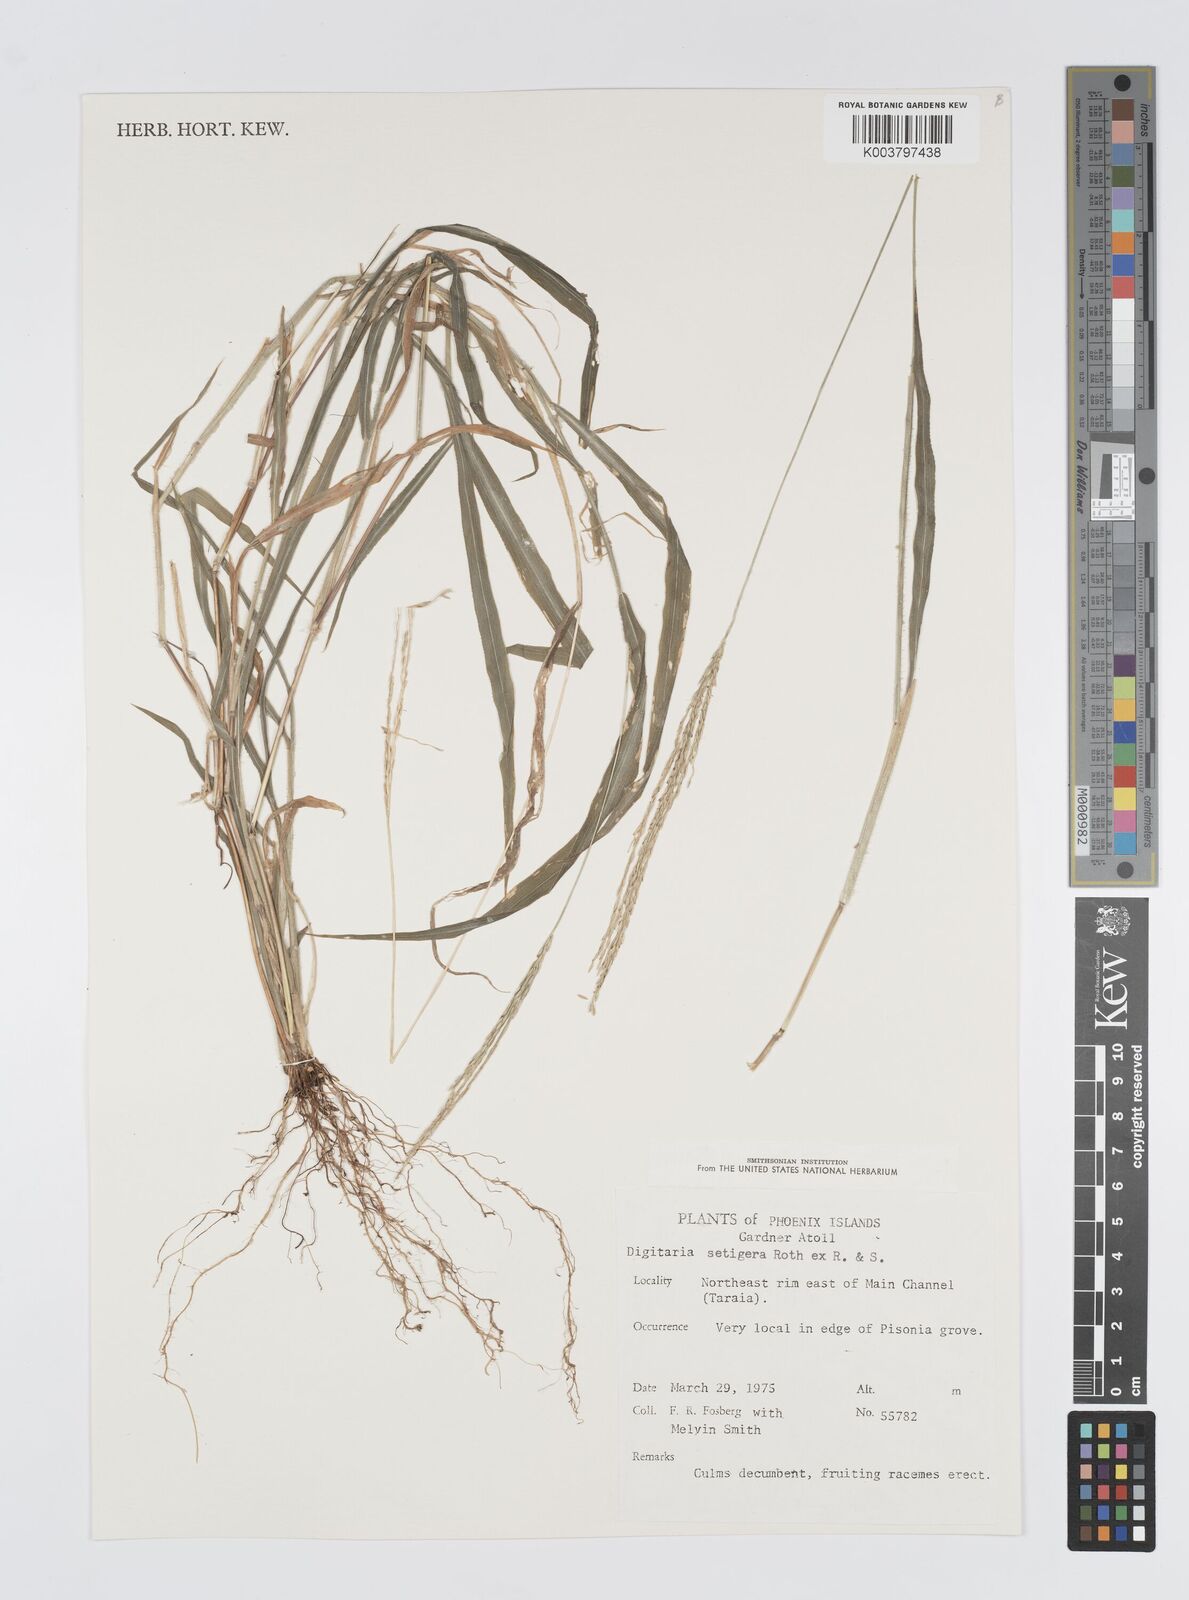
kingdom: Plantae
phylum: Tracheophyta
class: Liliopsida
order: Poales
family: Poaceae
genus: Digitaria
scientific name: Digitaria setigera
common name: East indian crabgrass
